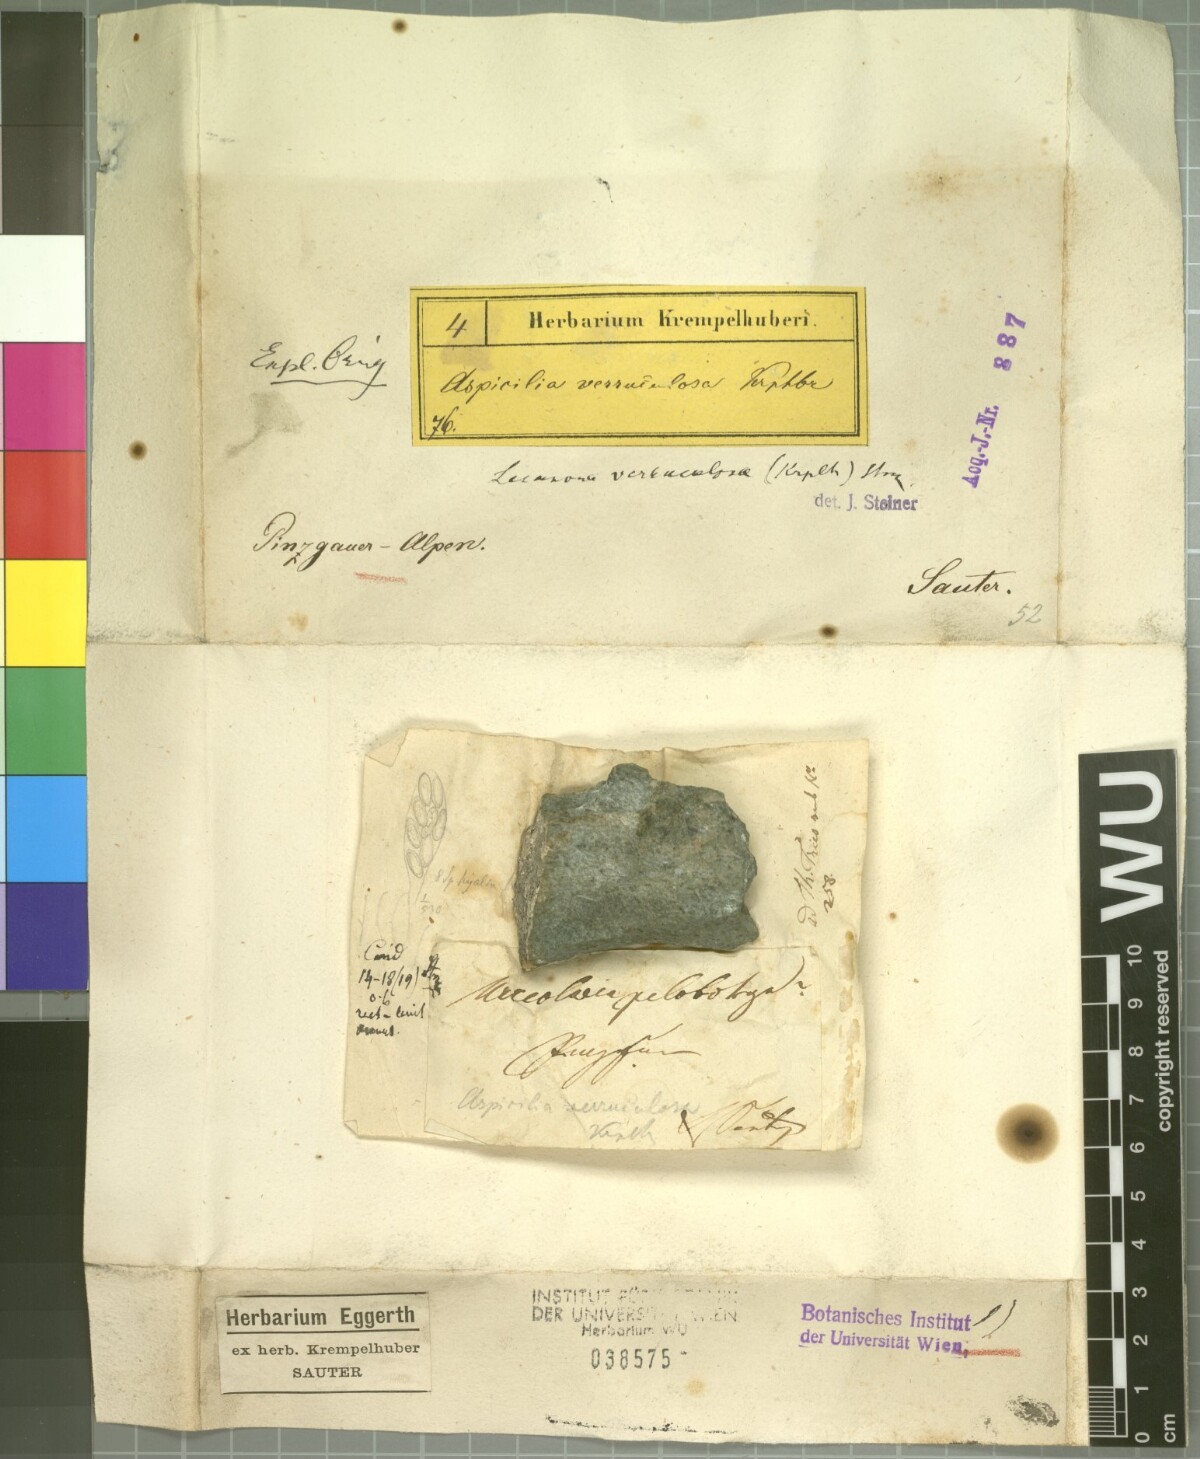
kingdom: Fungi
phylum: Ascomycota
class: Lecanoromycetes
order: Pertusariales
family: Megasporaceae
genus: Oxneriaria
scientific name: Oxneriaria verruculosa
